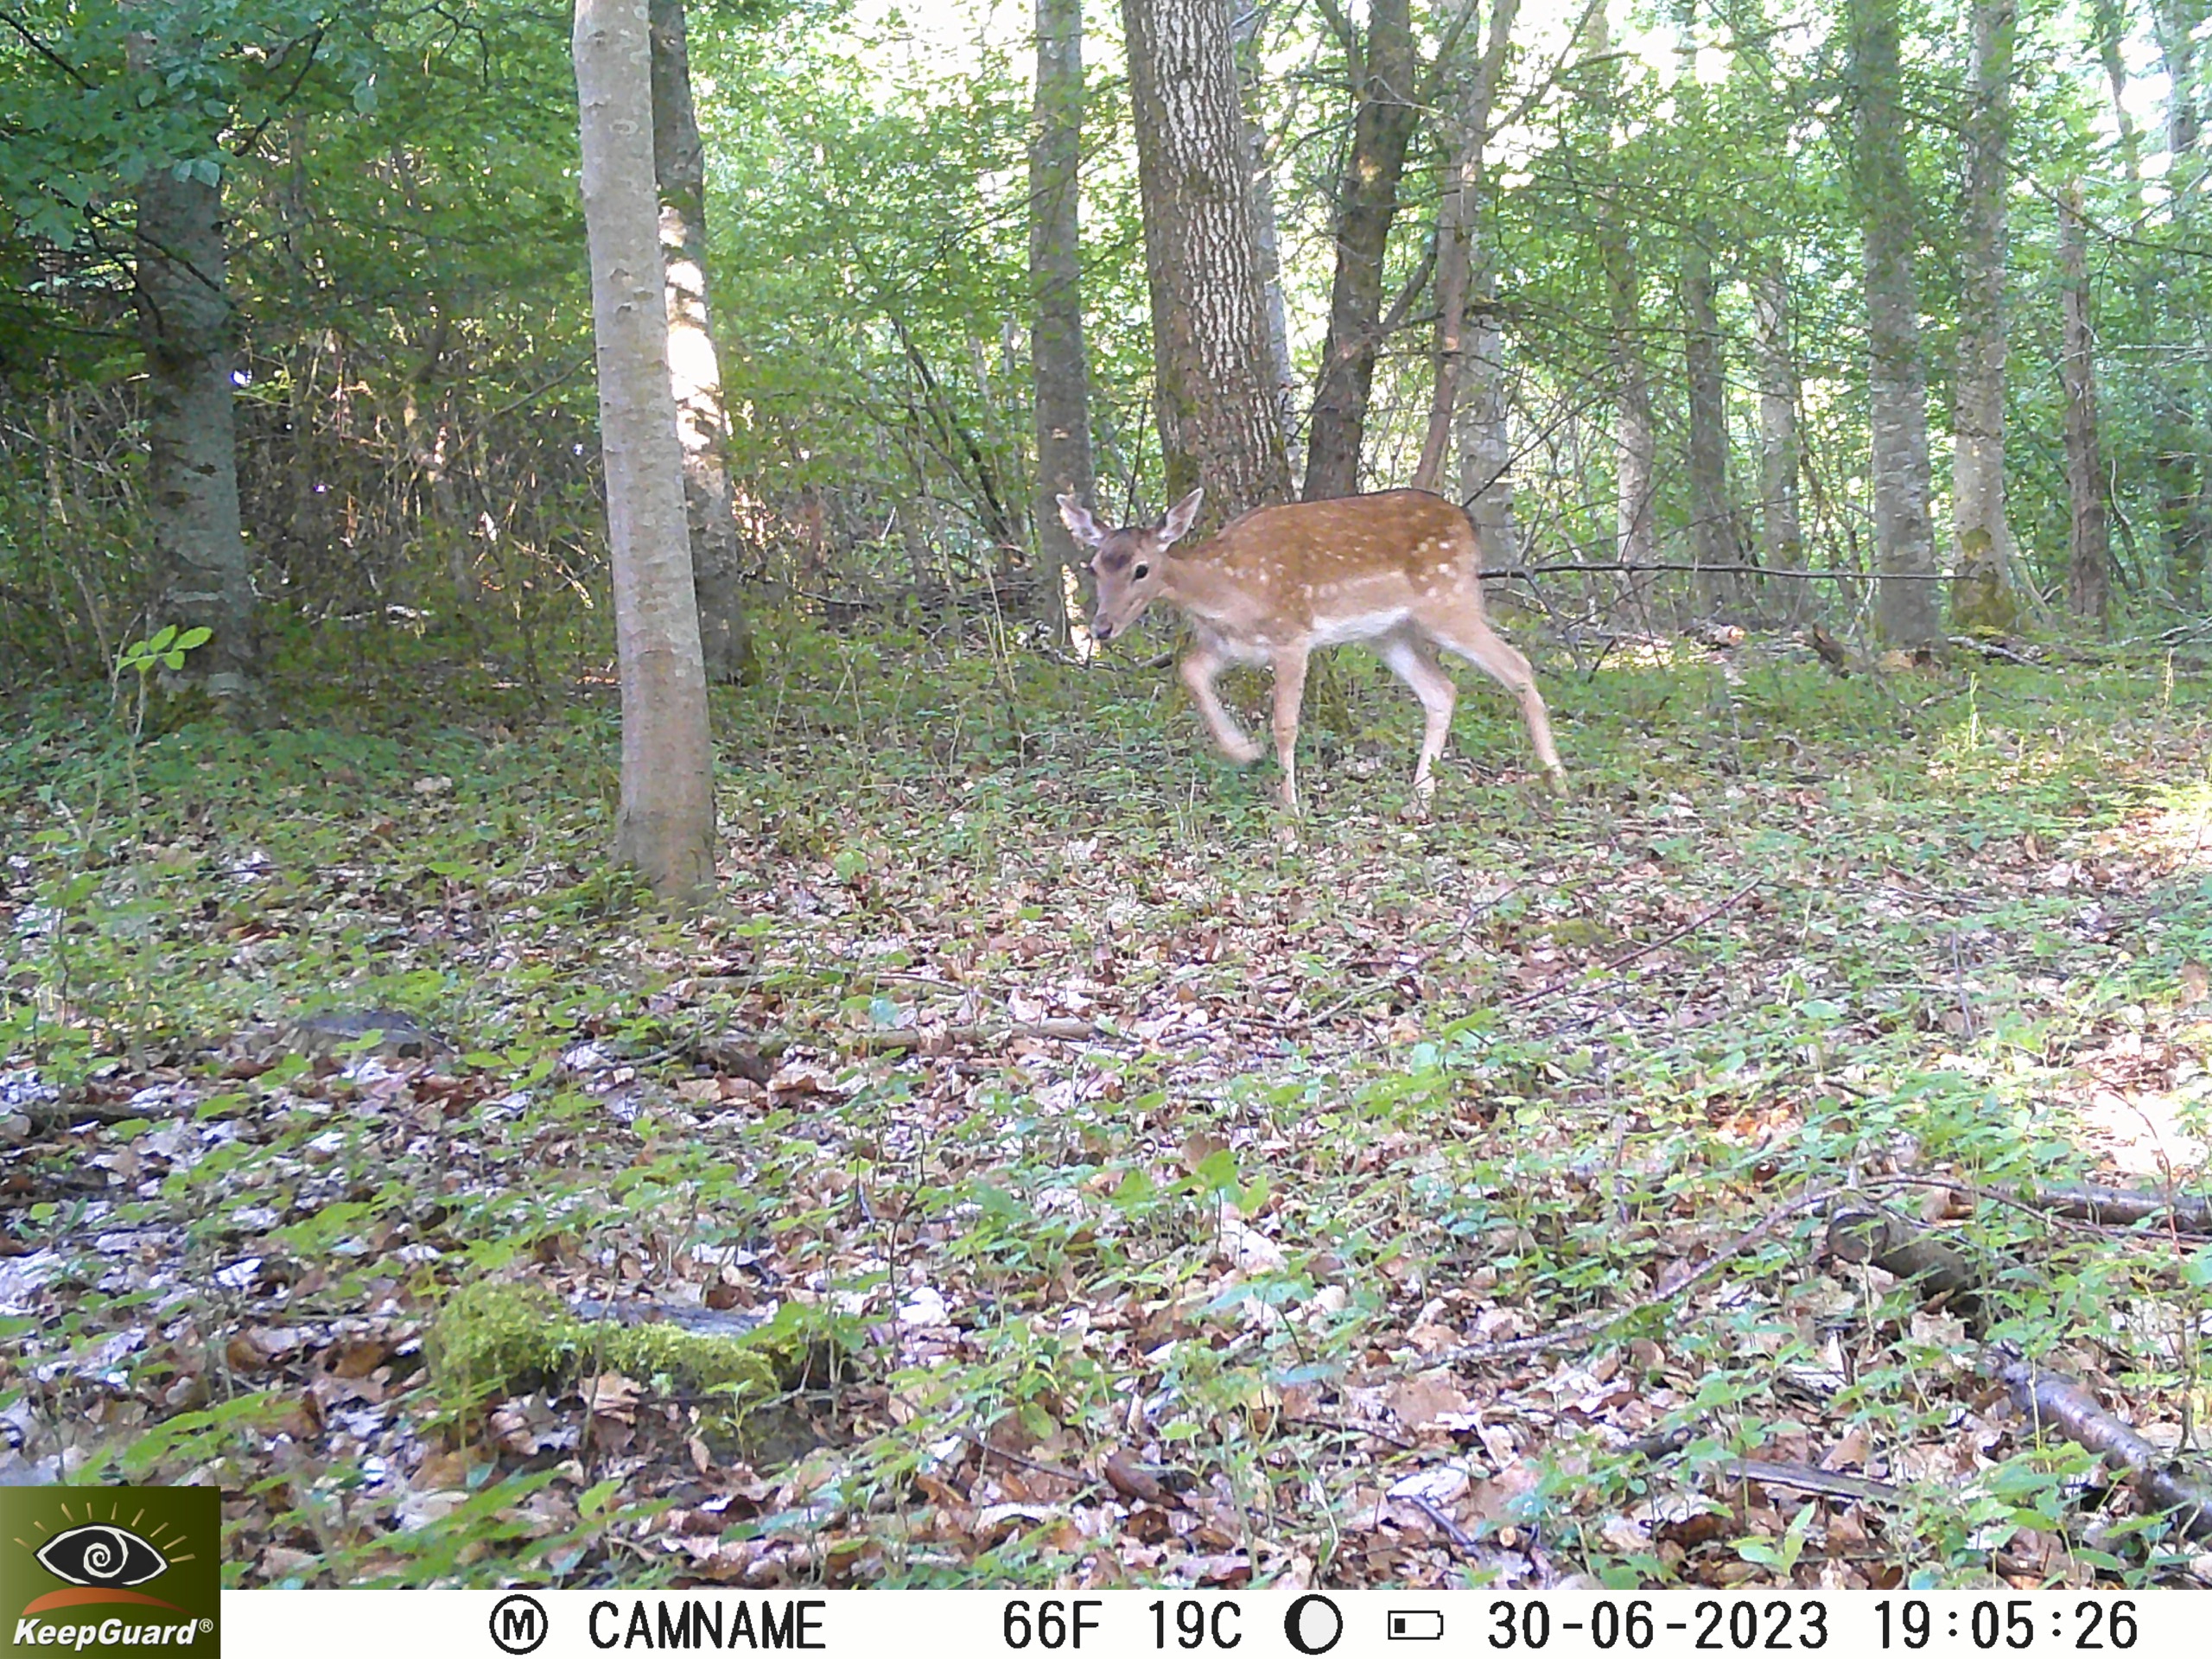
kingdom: Animalia
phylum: Chordata
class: Mammalia
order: Artiodactyla
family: Cervidae
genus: Dama
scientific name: Dama dama
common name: Dådyr
